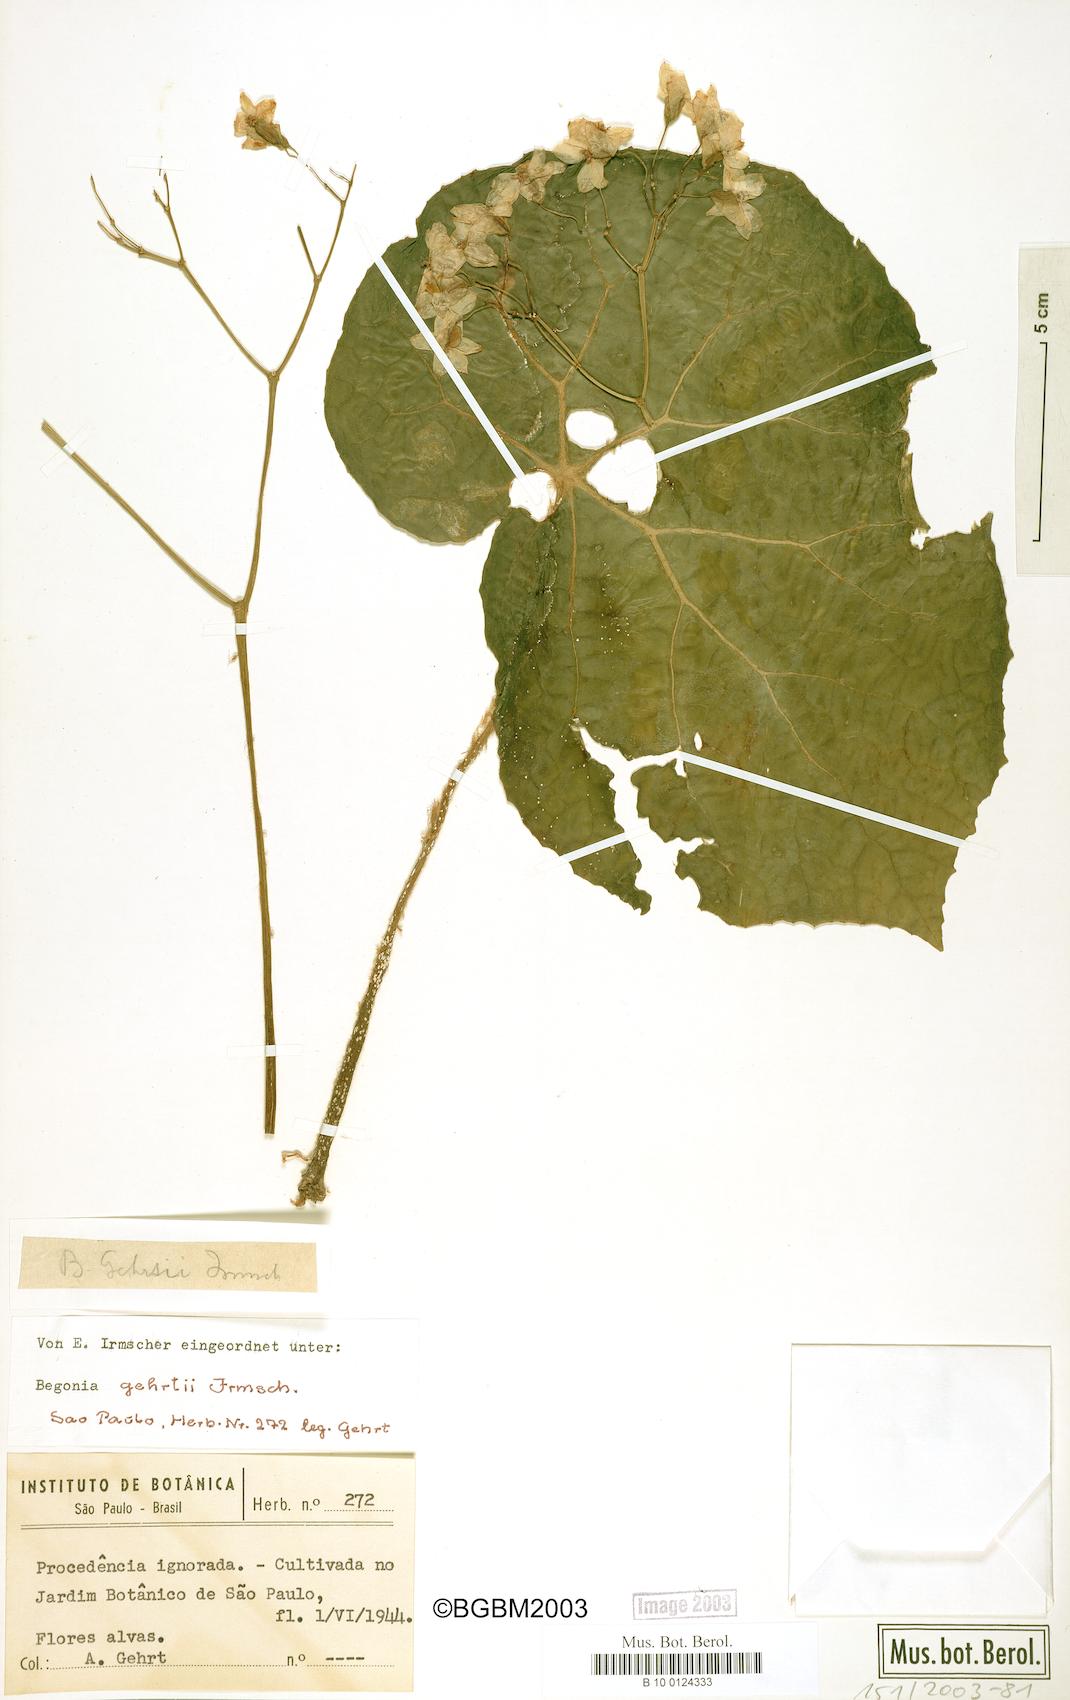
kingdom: Plantae
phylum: Tracheophyta
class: Magnoliopsida
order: Cucurbitales
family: Begoniaceae
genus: Begonia
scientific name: Begonia gehrtii
